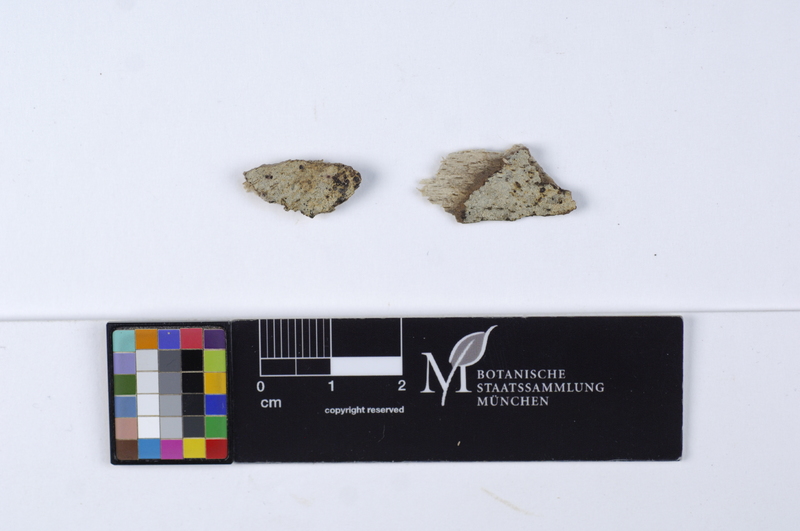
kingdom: Fungi
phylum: Basidiomycota
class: Agaricomycetes
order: Cantharellales
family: Botryobasidiaceae
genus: Botryobasidium
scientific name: Botryobasidium danicum
